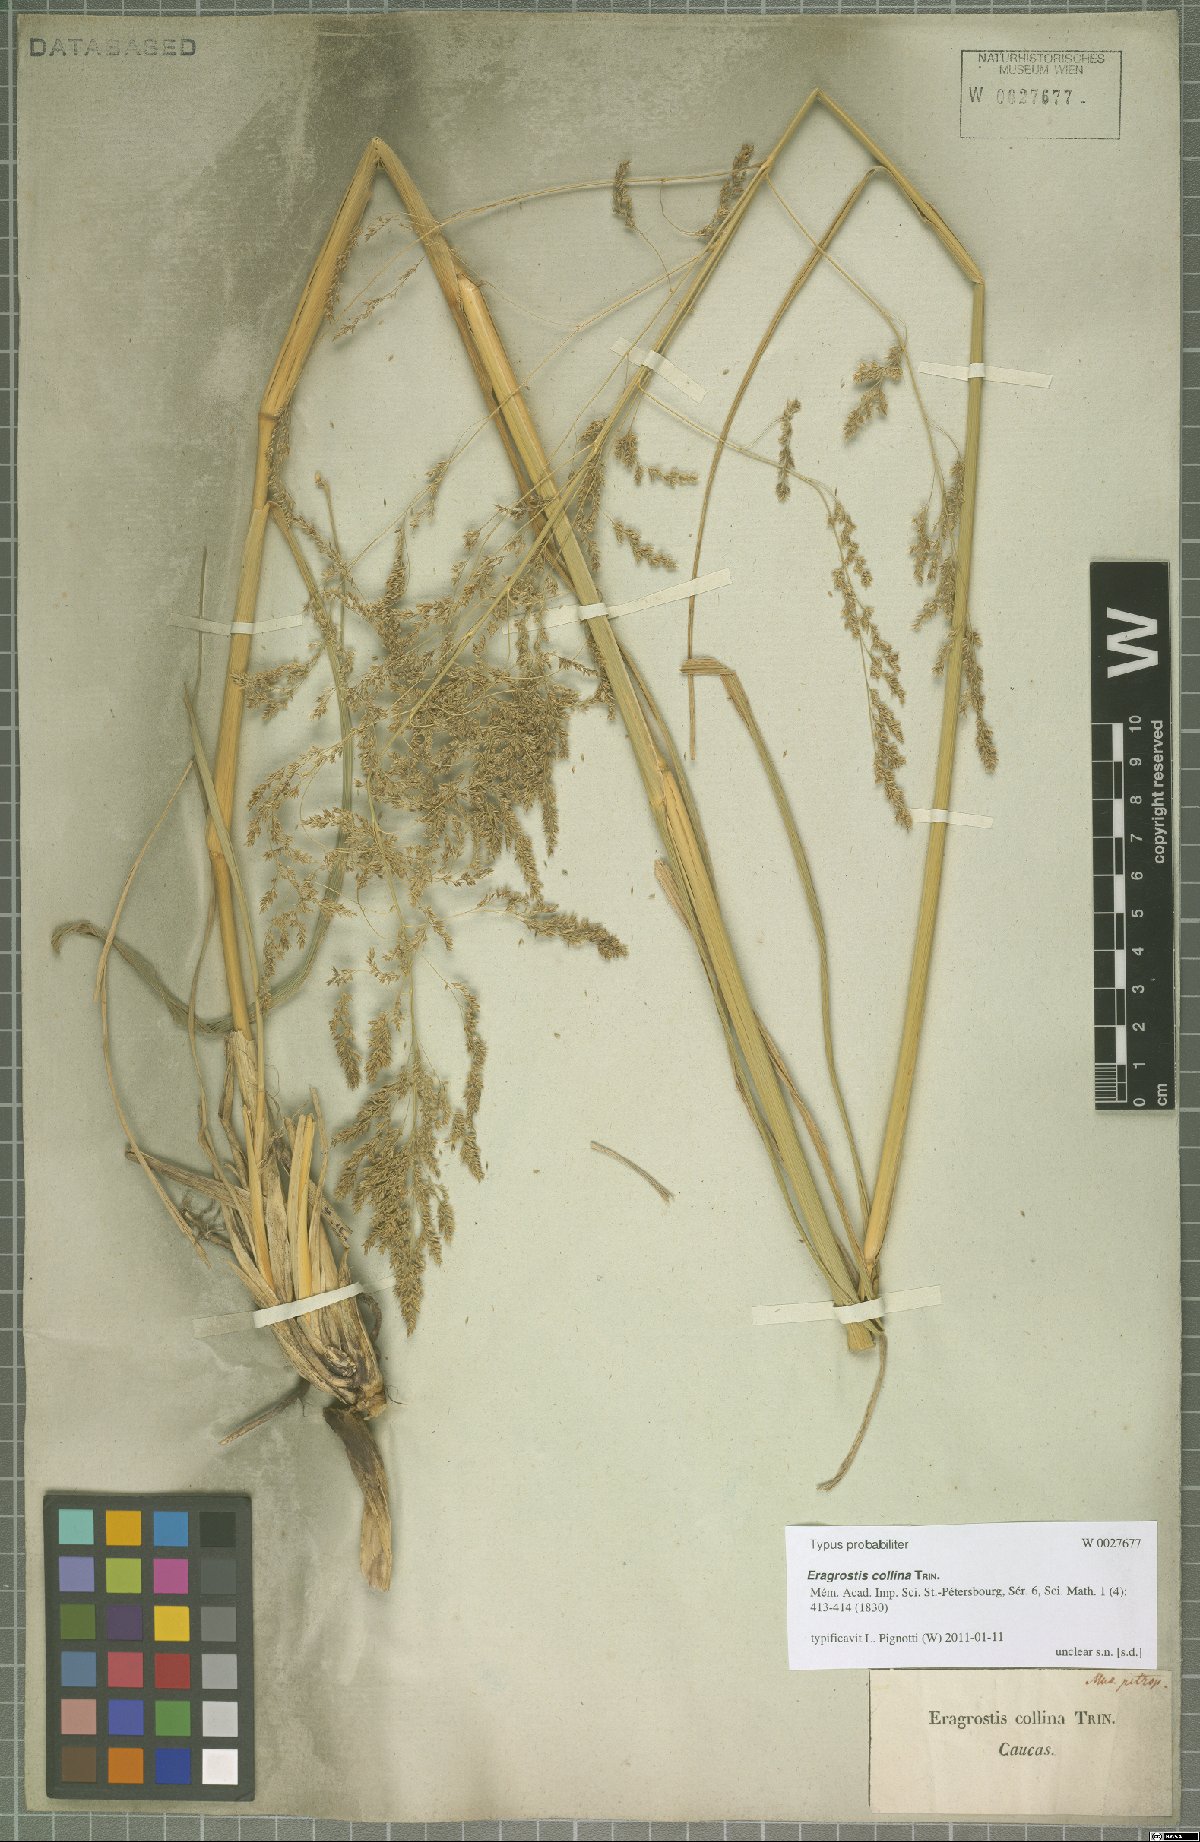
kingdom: Plantae
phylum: Tracheophyta
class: Liliopsida
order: Poales
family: Poaceae
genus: Eragrostis
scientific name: Eragrostis collina
